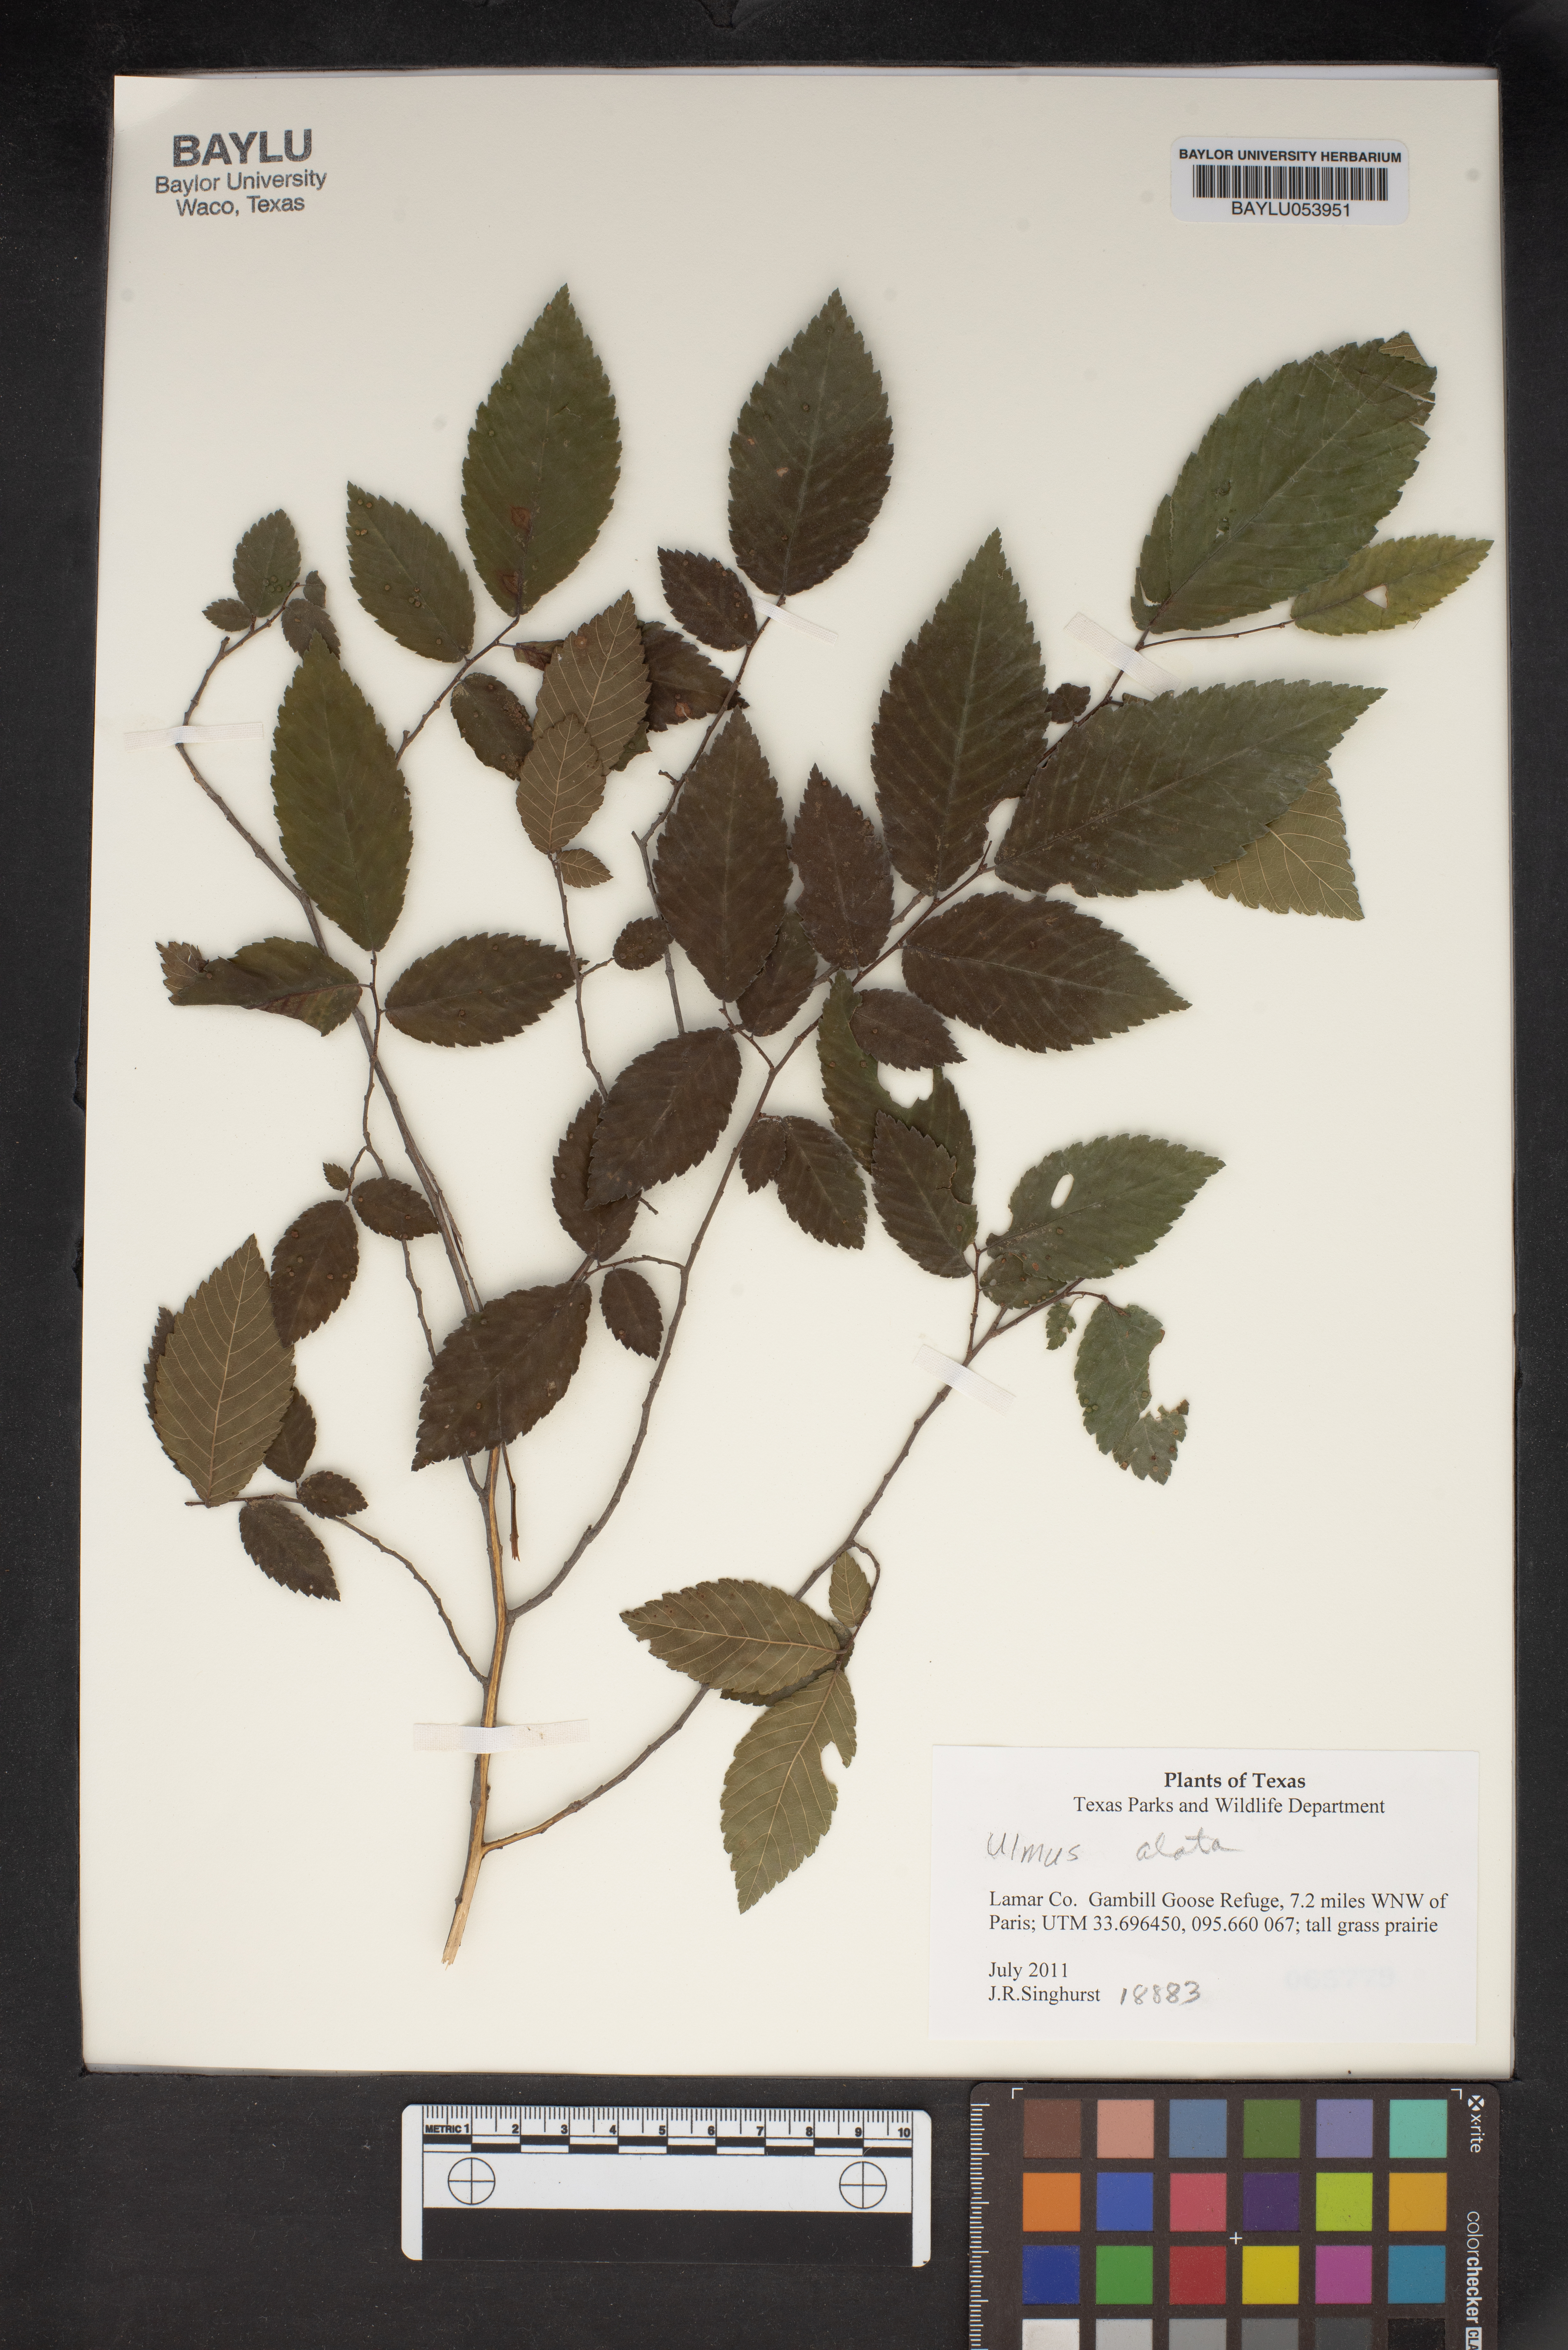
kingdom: Plantae
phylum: Tracheophyta
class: Magnoliopsida
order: Rosales
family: Ulmaceae
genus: Ulmus
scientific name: Ulmus alata
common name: Winged elm
